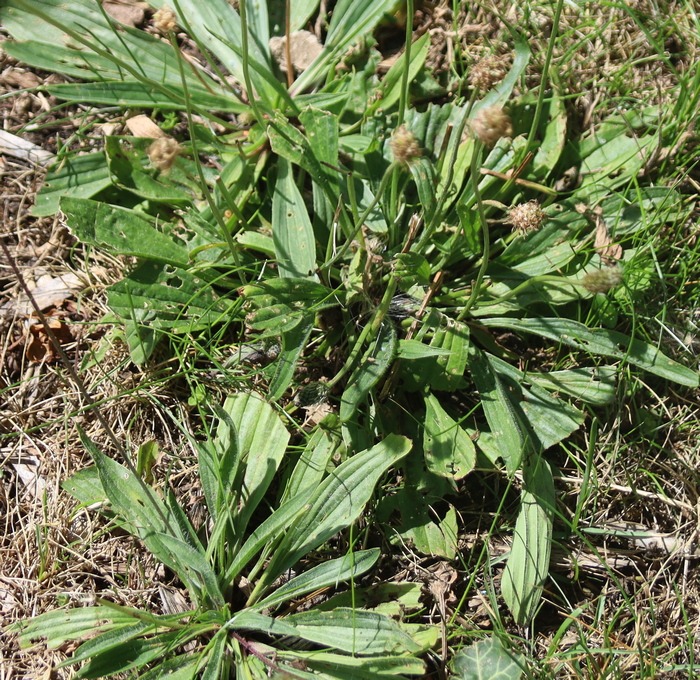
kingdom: Plantae
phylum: Tracheophyta
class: Magnoliopsida
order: Lamiales
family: Plantaginaceae
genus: Plantago
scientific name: Plantago lanceolata
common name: Lancet-vejbred
